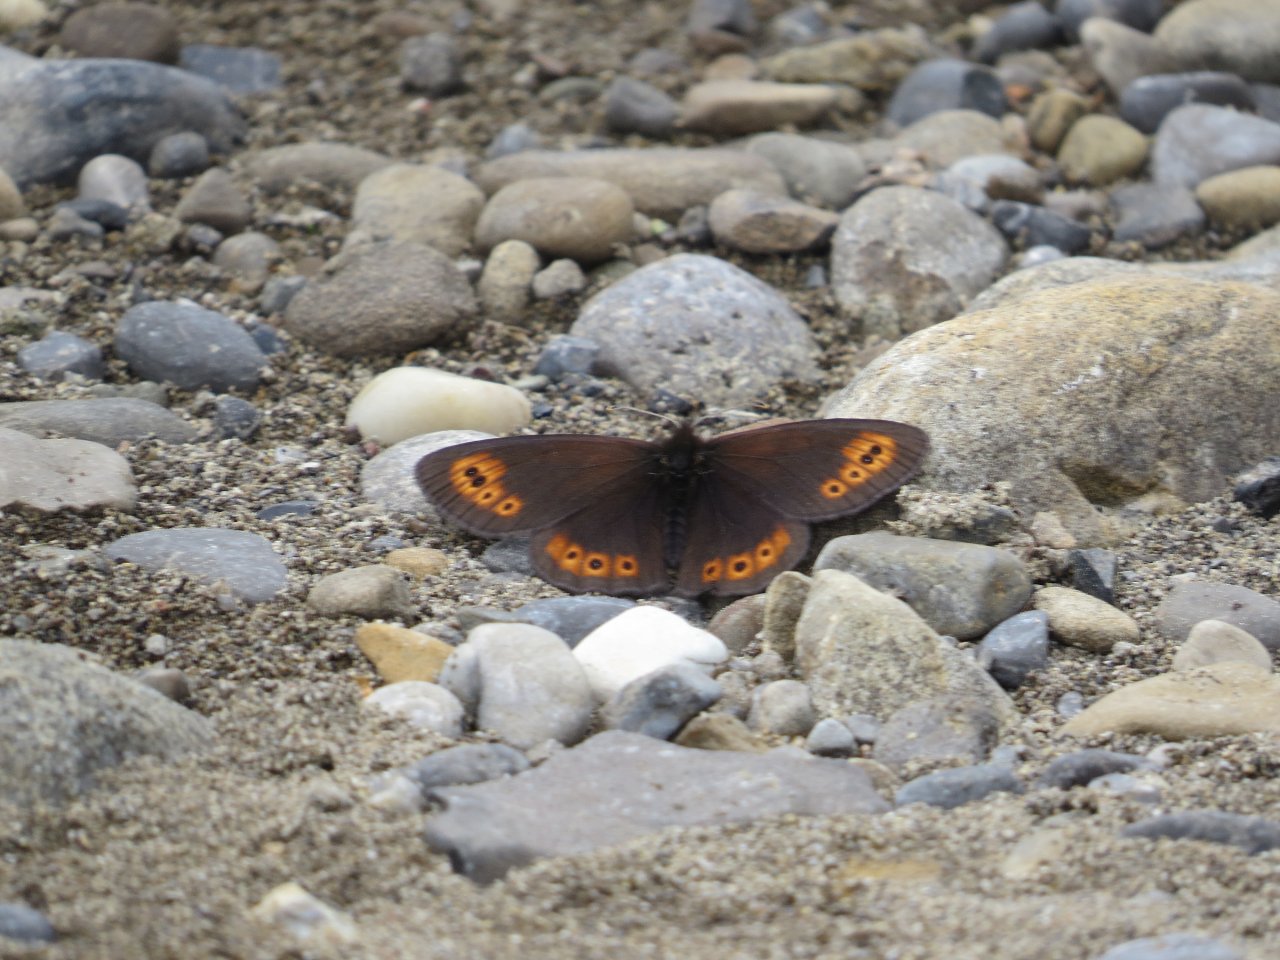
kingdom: Animalia
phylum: Arthropoda
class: Insecta
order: Lepidoptera
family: Nymphalidae
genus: Erebia
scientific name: Erebia epipsodea
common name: Common Alpine
